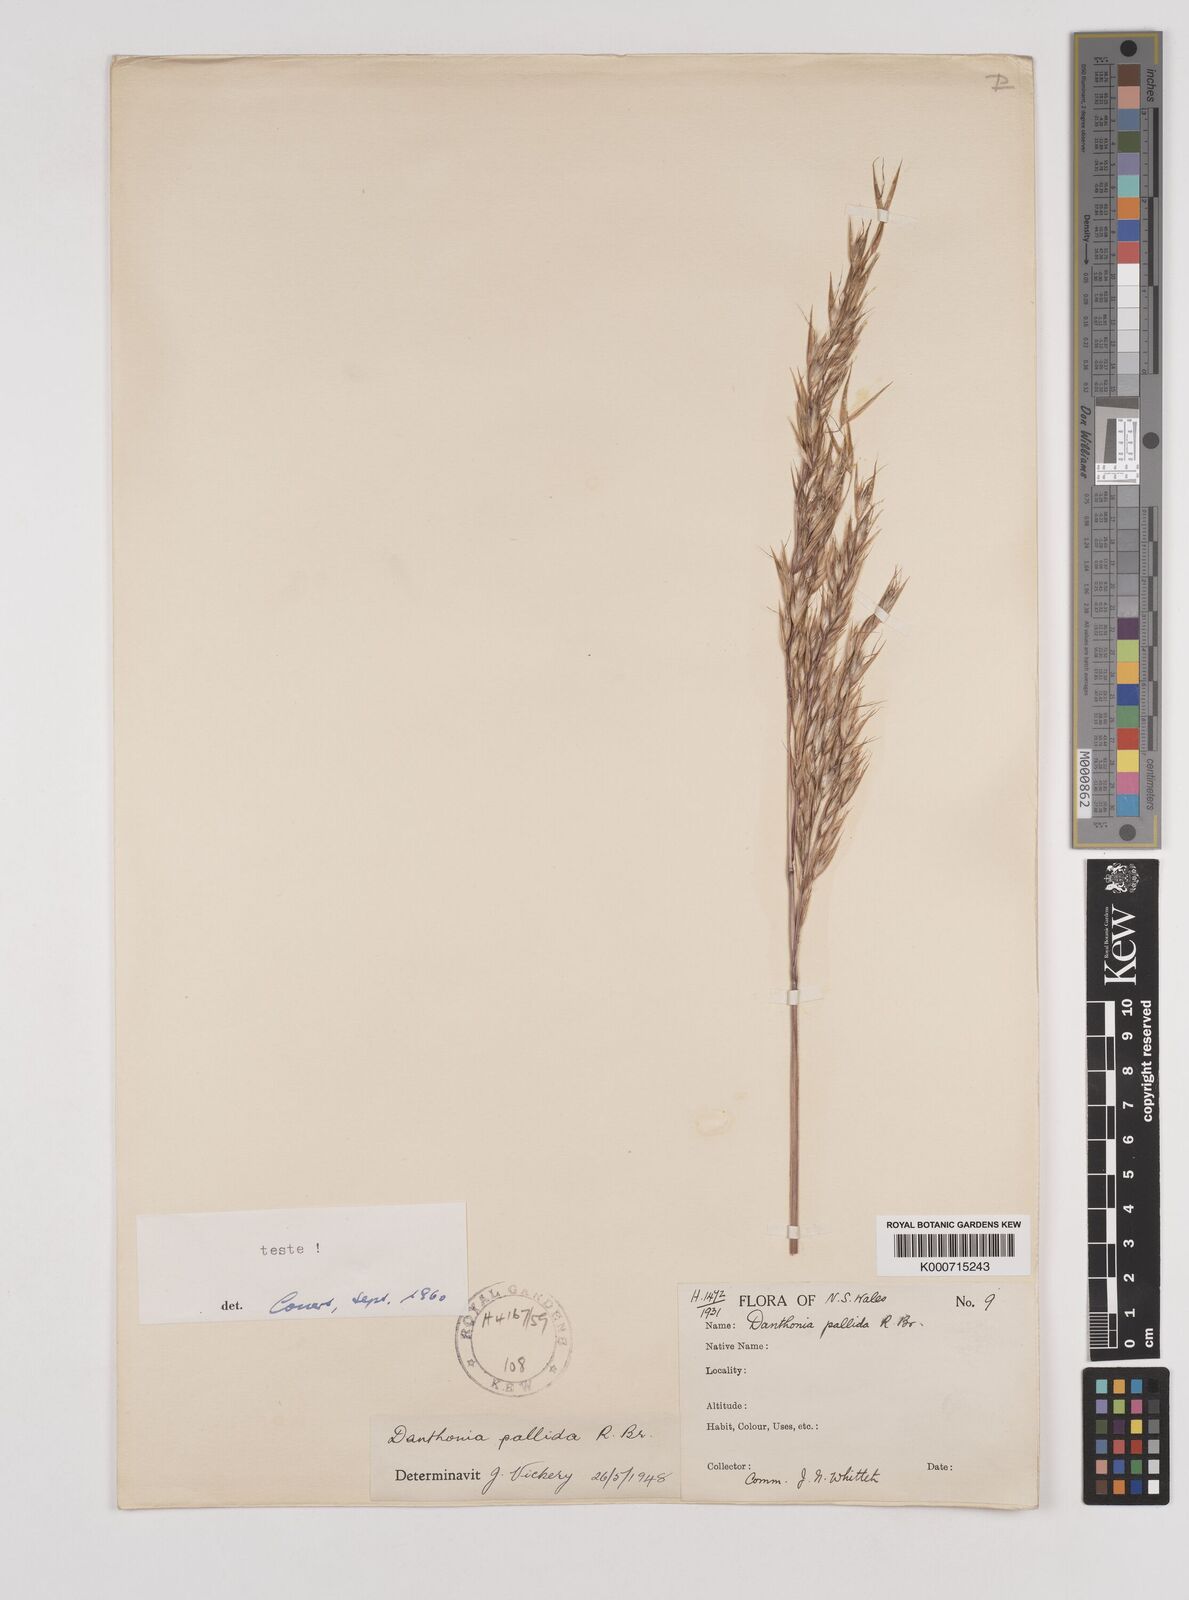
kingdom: Plantae
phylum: Tracheophyta
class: Liliopsida
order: Poales
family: Poaceae
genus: Rytidosperma
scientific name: Rytidosperma
